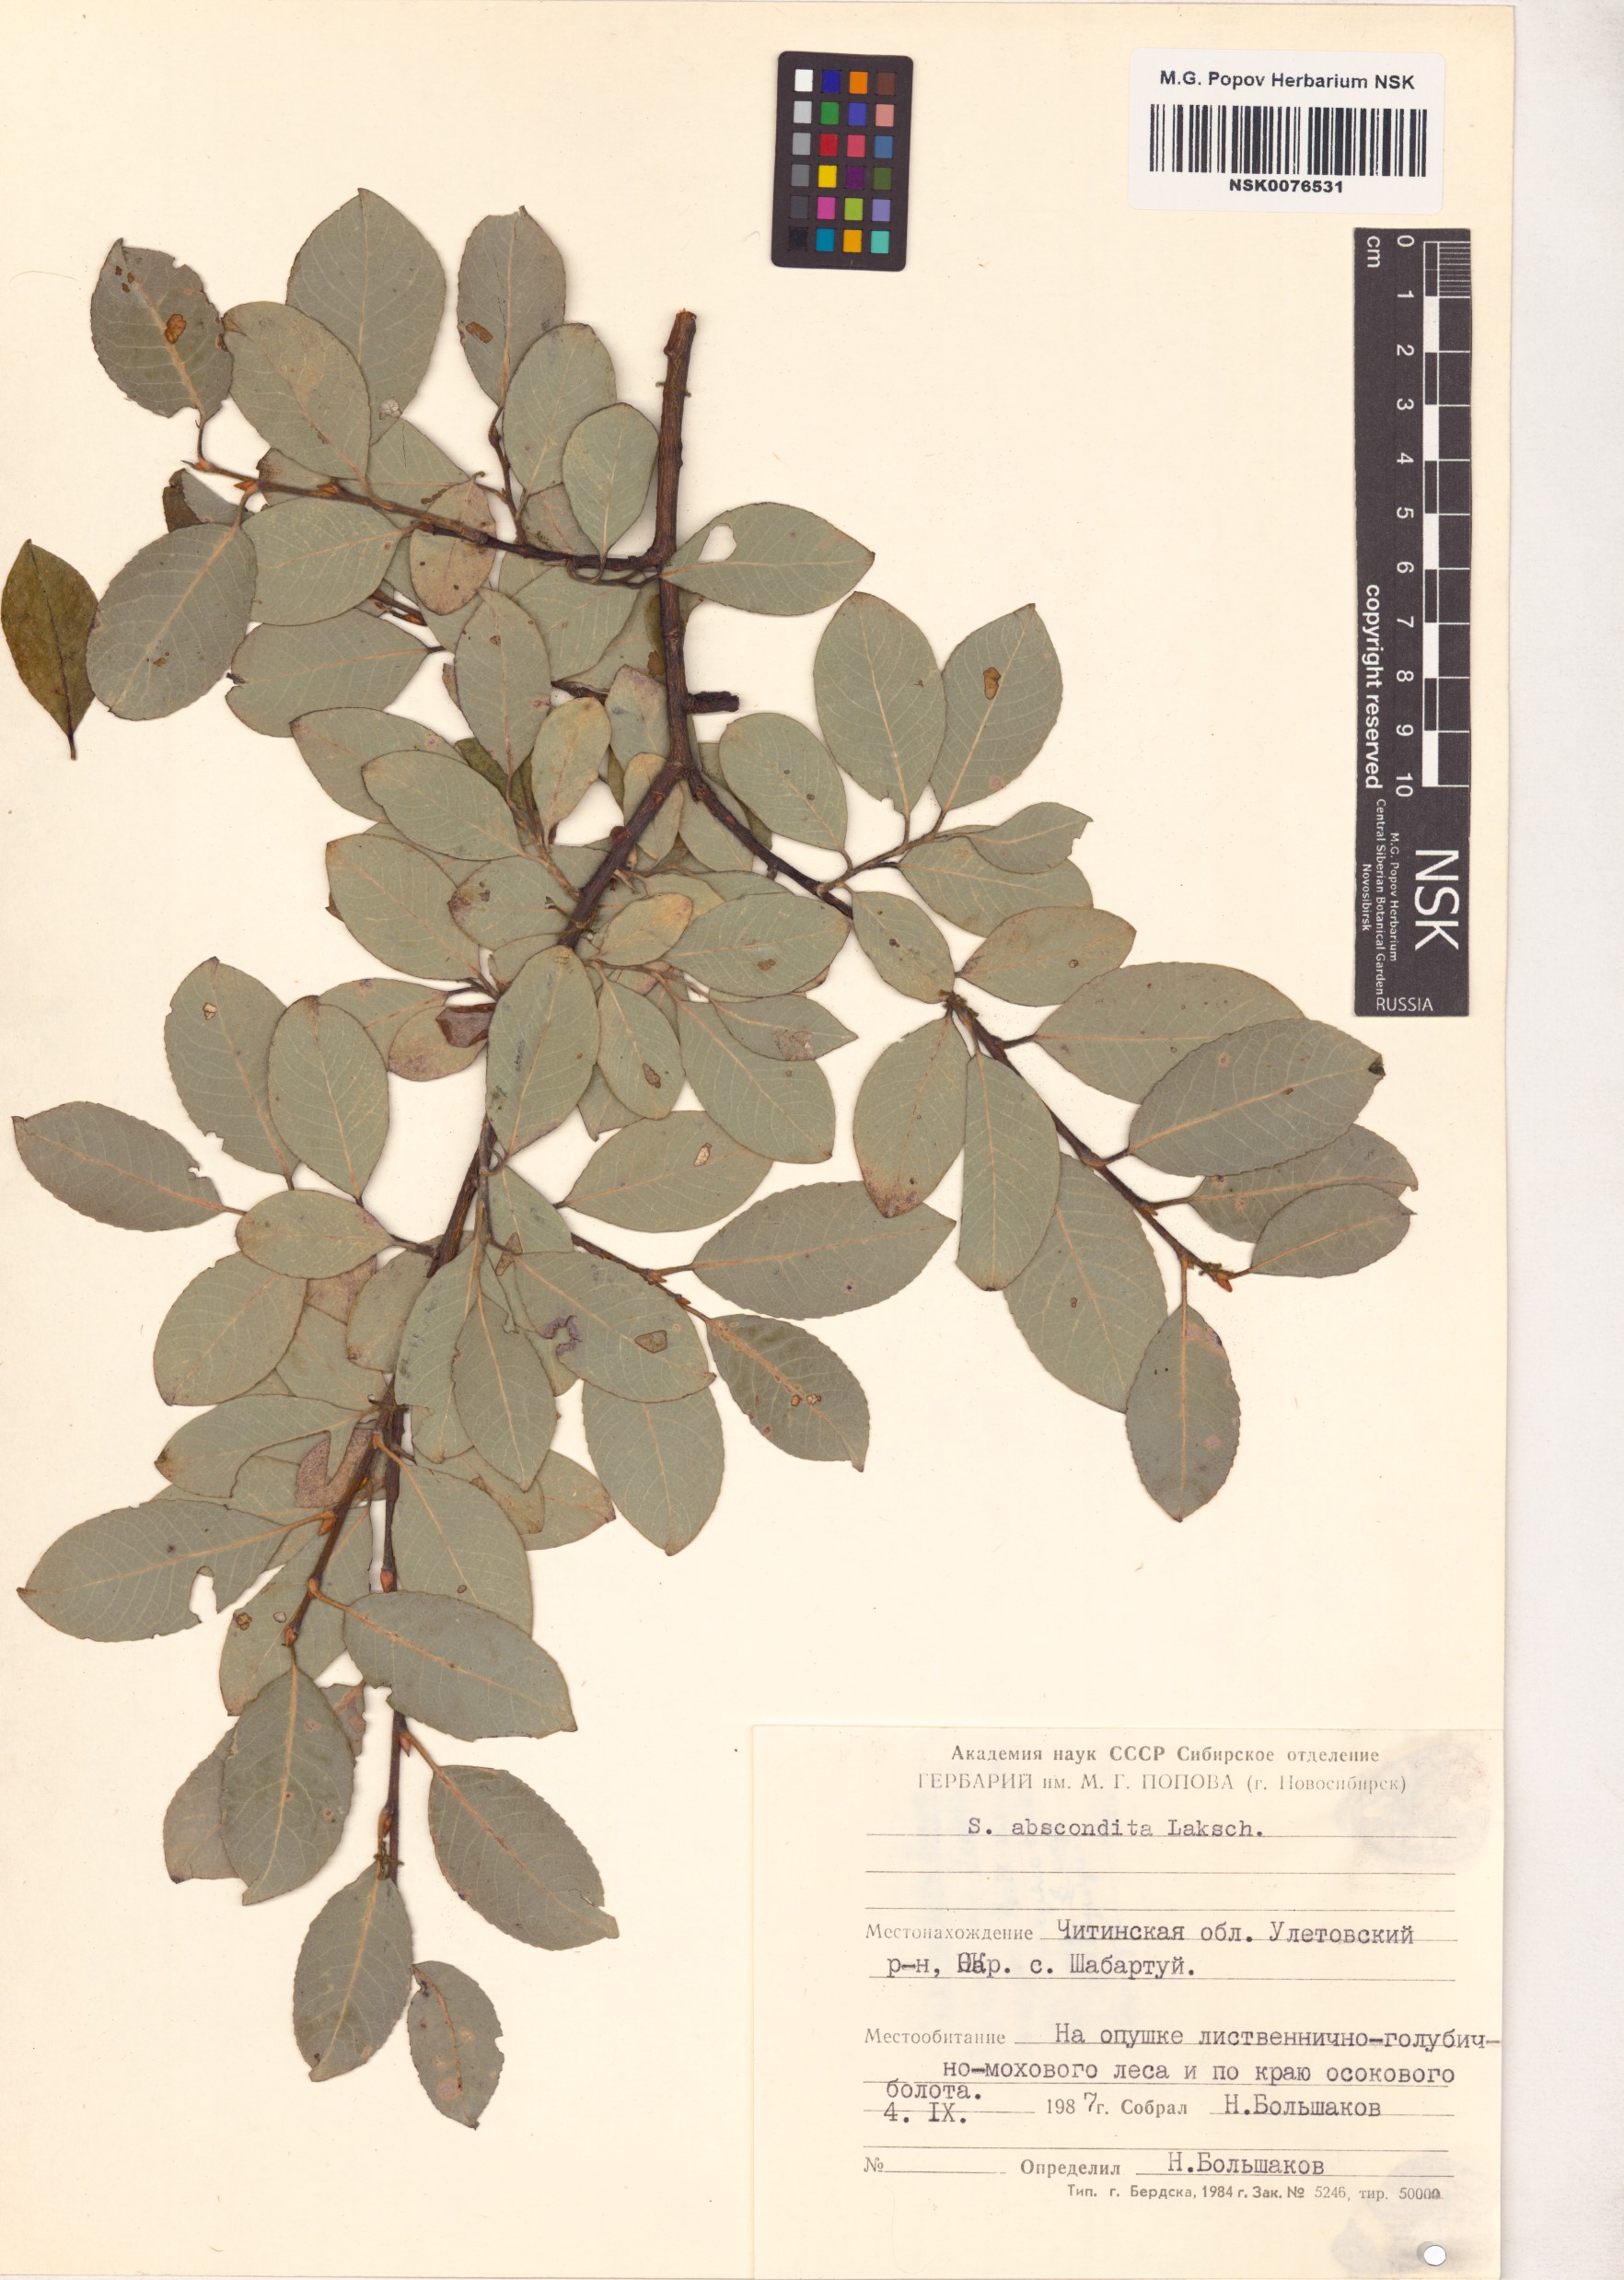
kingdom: Plantae
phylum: Tracheophyta
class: Magnoliopsida
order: Malpighiales
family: Salicaceae
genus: Salix
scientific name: Salix abscondita
